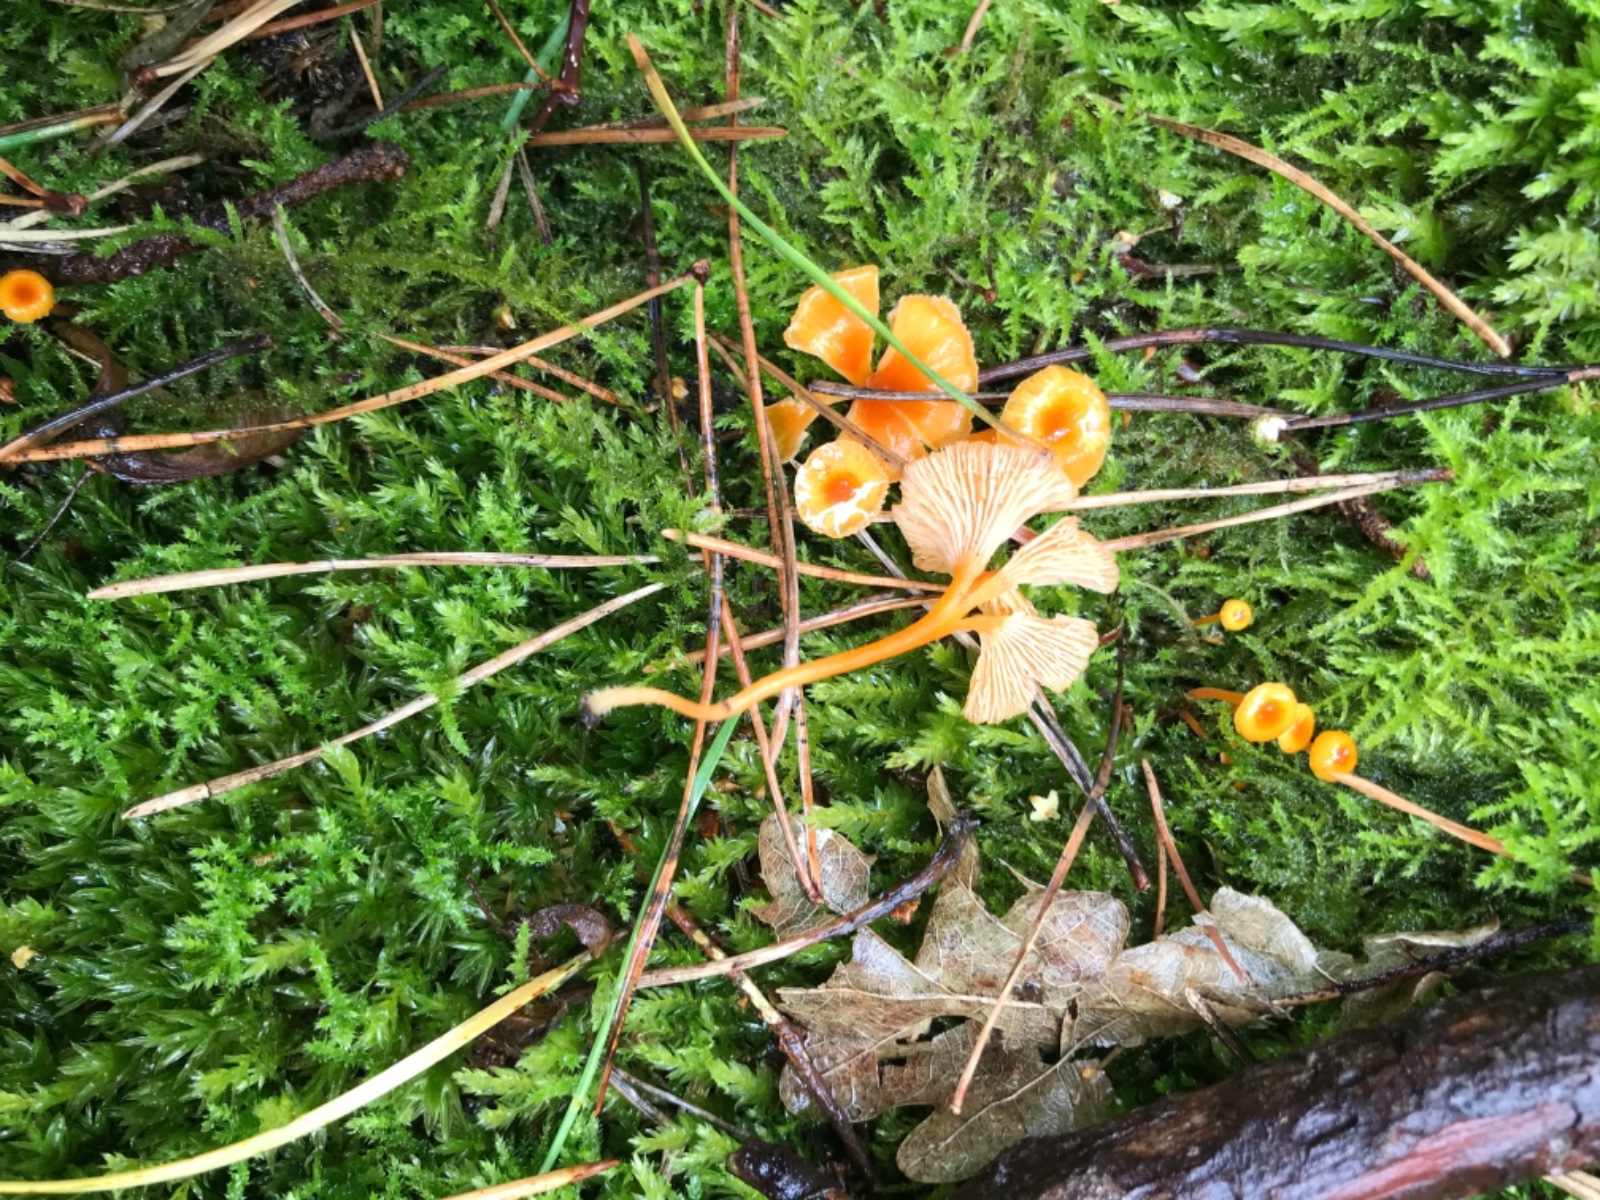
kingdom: Fungi
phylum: Basidiomycota
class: Agaricomycetes
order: Hymenochaetales
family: Rickenellaceae
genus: Rickenella
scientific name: Rickenella fibula
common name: orange mosnavlehat
